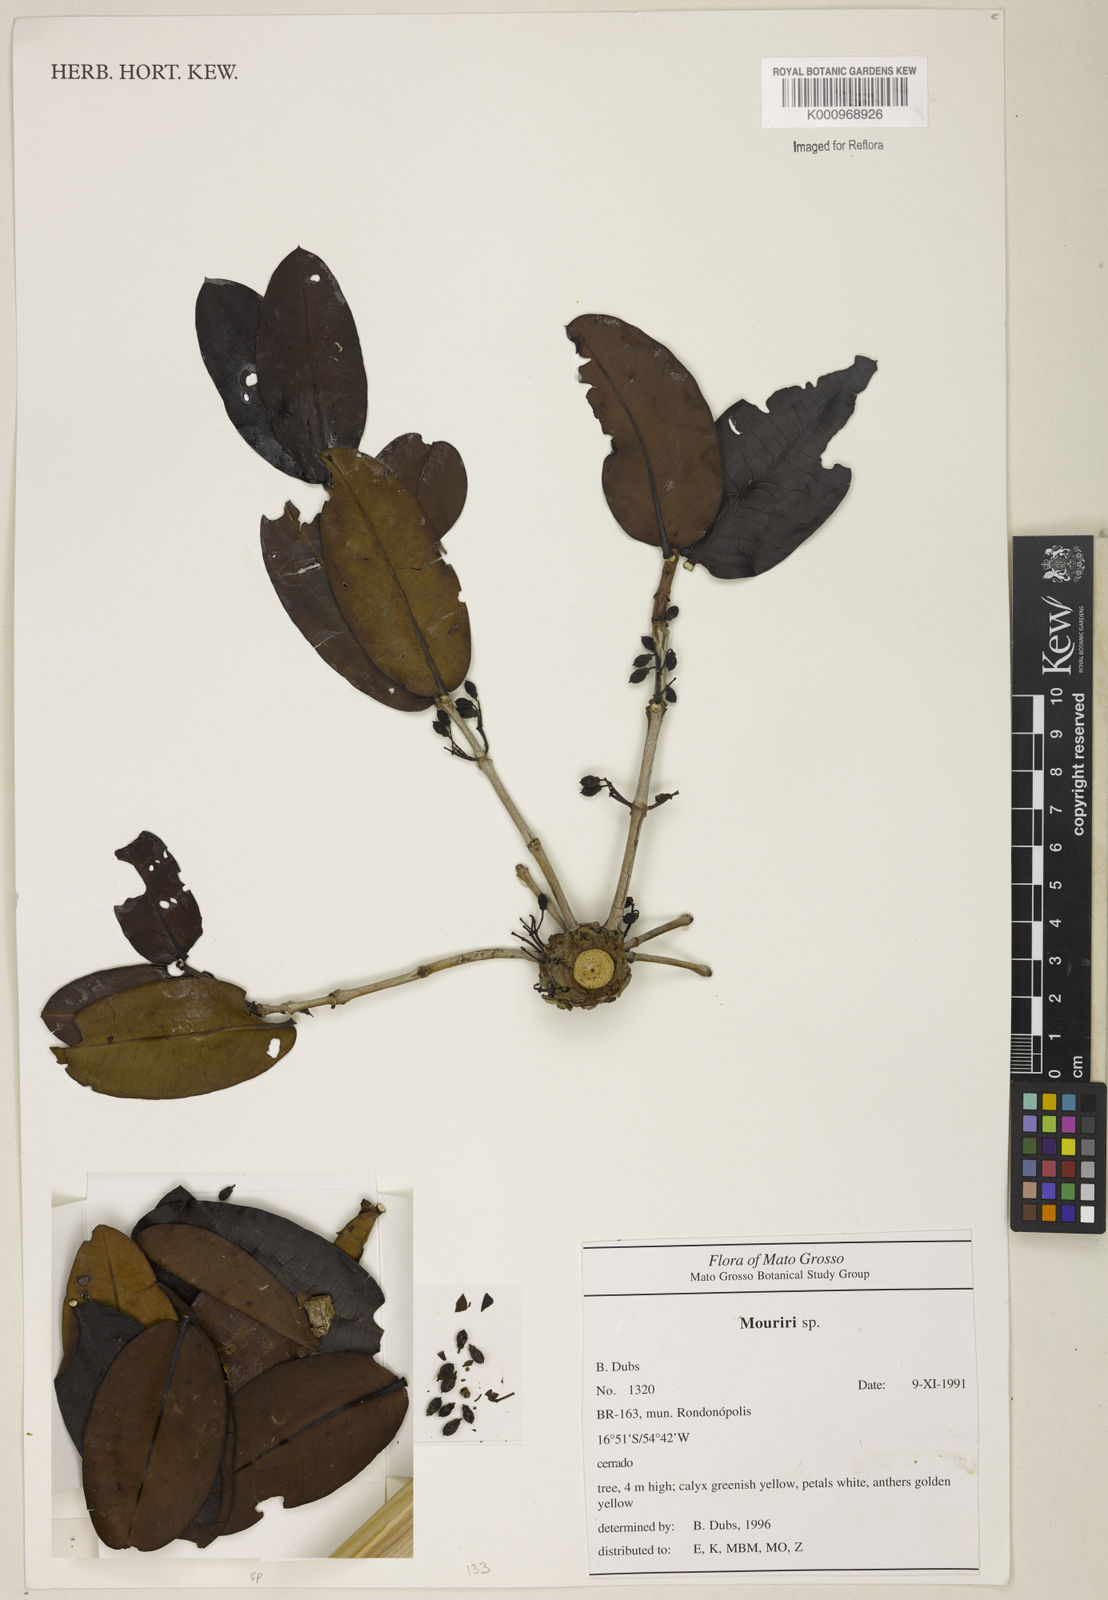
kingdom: Plantae
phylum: Tracheophyta
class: Magnoliopsida
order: Myrtales
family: Melastomataceae
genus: Mouriri
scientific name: Mouriri
